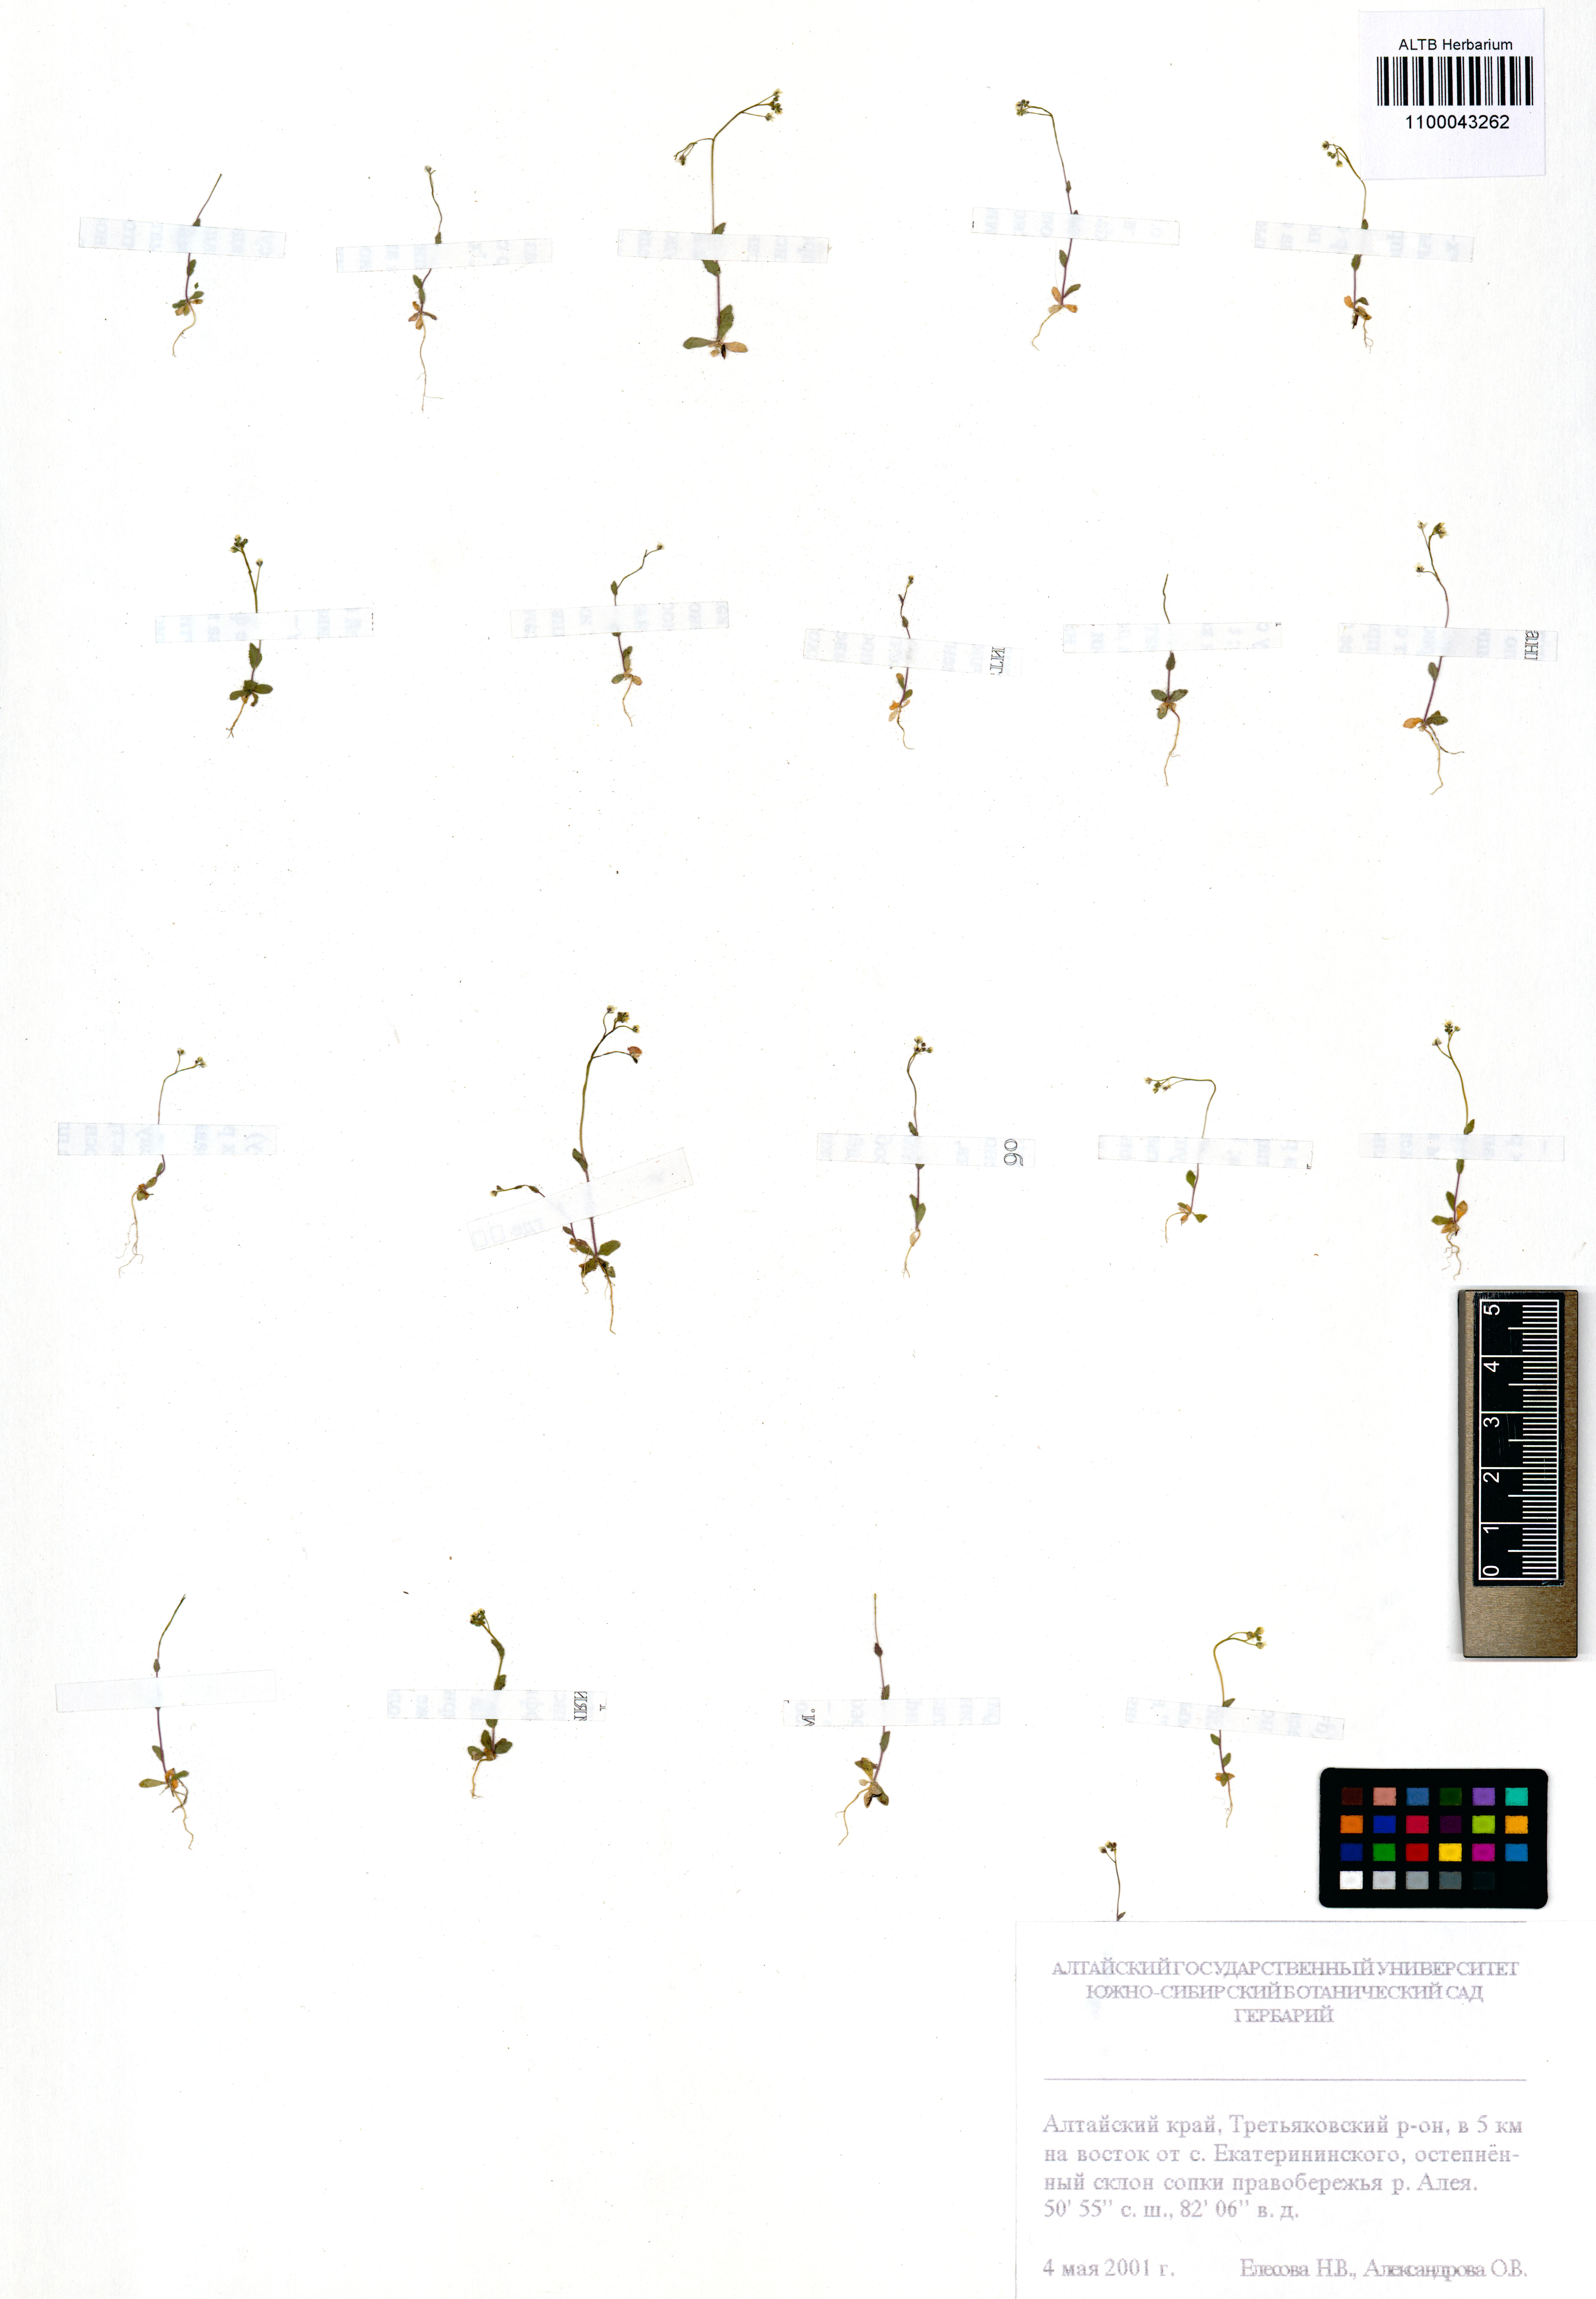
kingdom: Plantae
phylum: Tracheophyta
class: Magnoliopsida
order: Brassicales
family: Brassicaceae
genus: Draba
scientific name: Draba nemorosa
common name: Wood whitlow-grass
